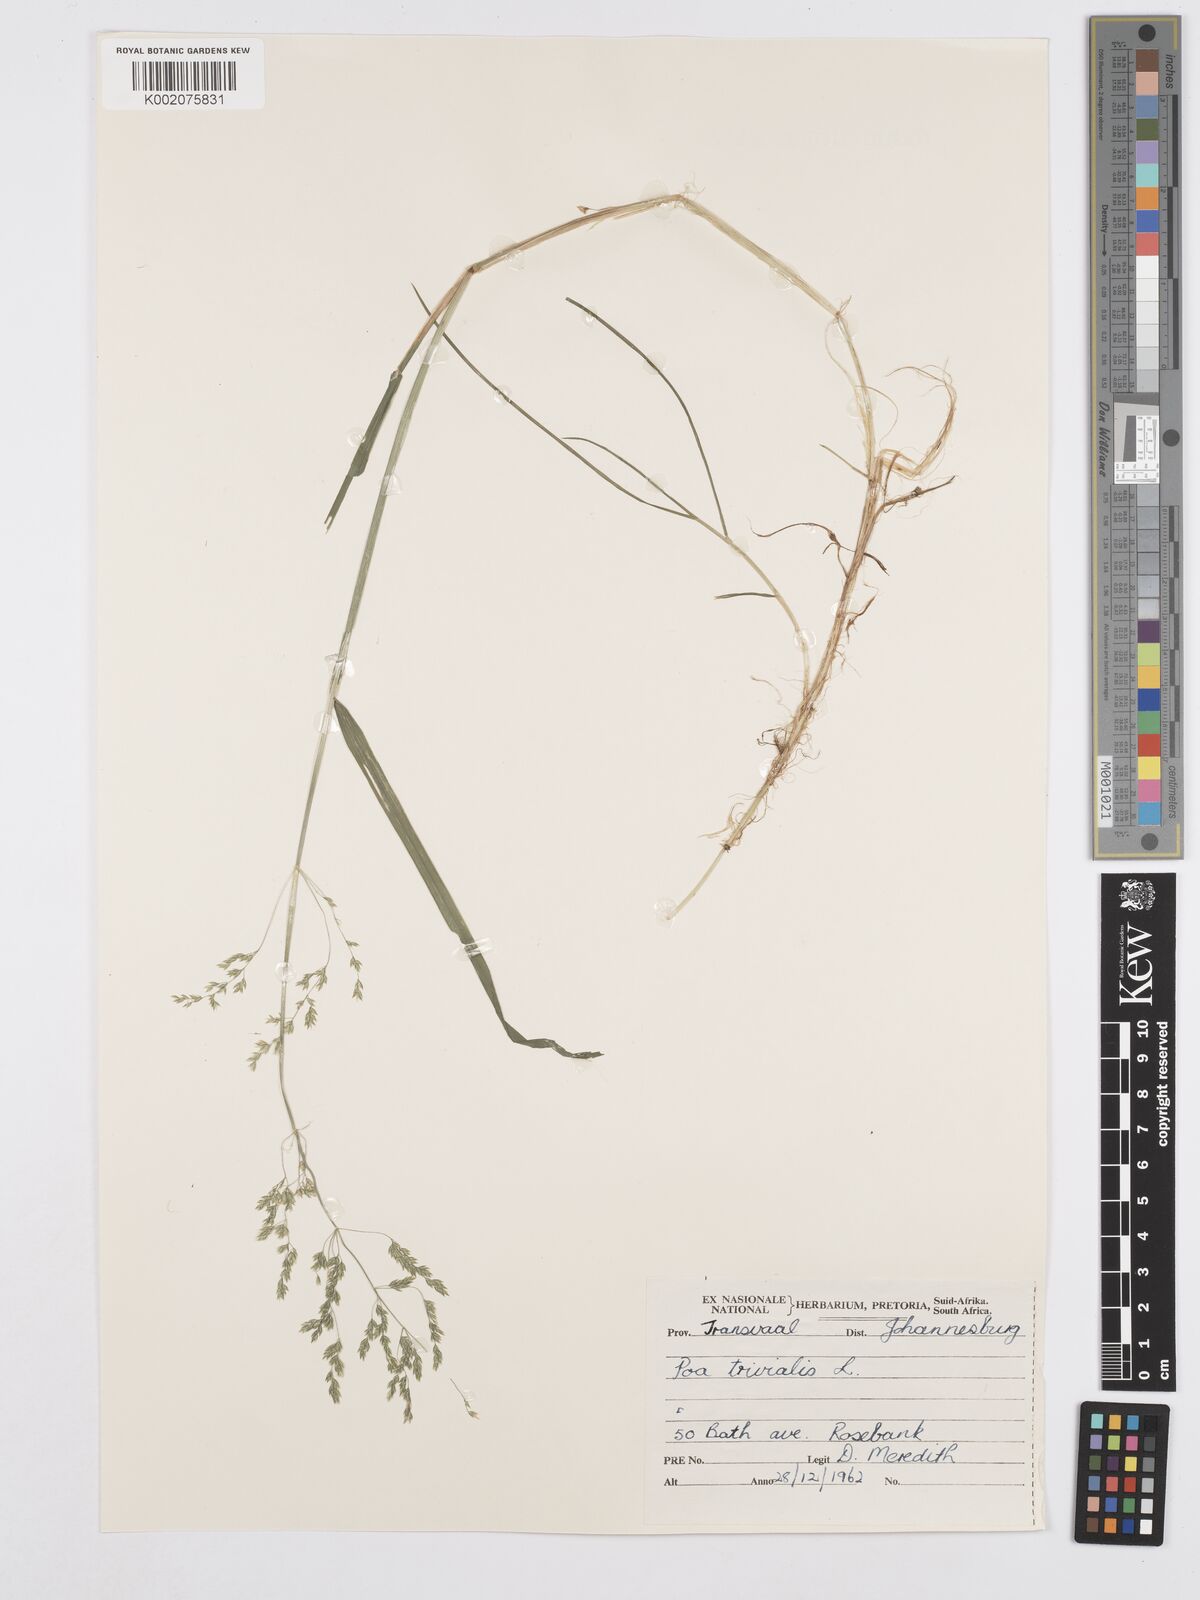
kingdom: Plantae
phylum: Tracheophyta
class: Liliopsida
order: Poales
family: Poaceae
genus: Poa
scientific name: Poa trivialis
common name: Rough bluegrass
